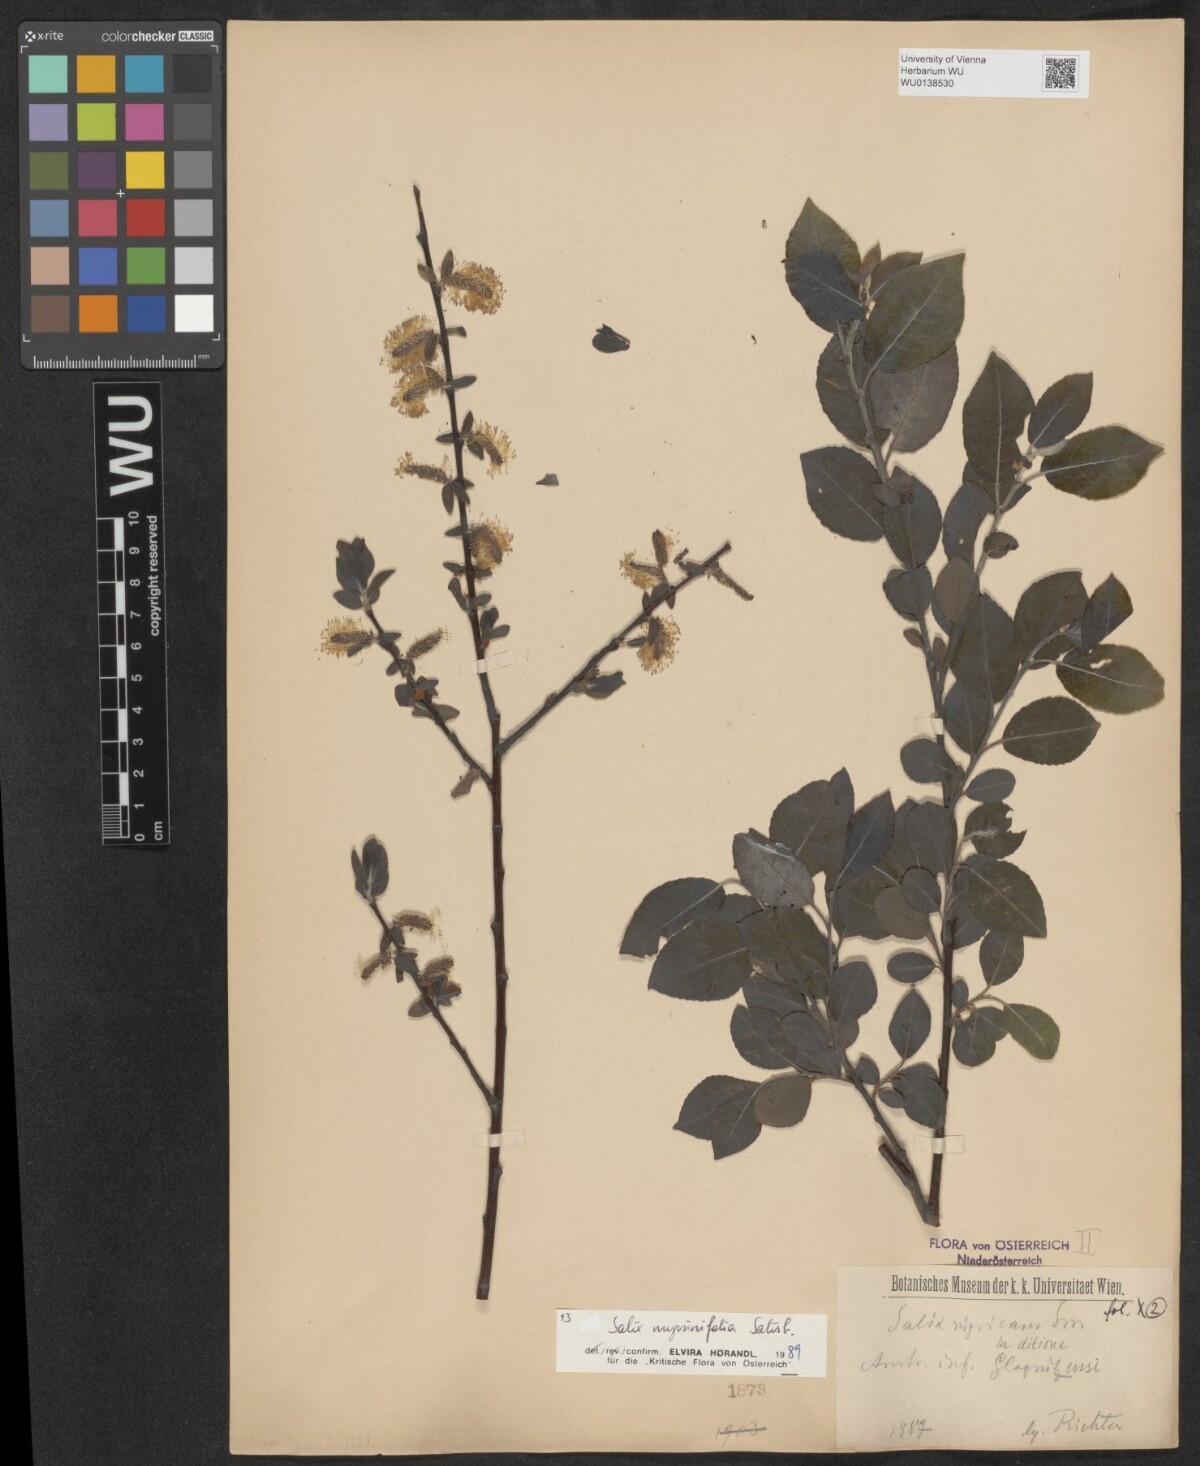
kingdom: Plantae
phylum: Tracheophyta
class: Magnoliopsida
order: Malpighiales
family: Salicaceae
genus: Salix
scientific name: Salix myrsinifolia
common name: Dark-leaved willow
